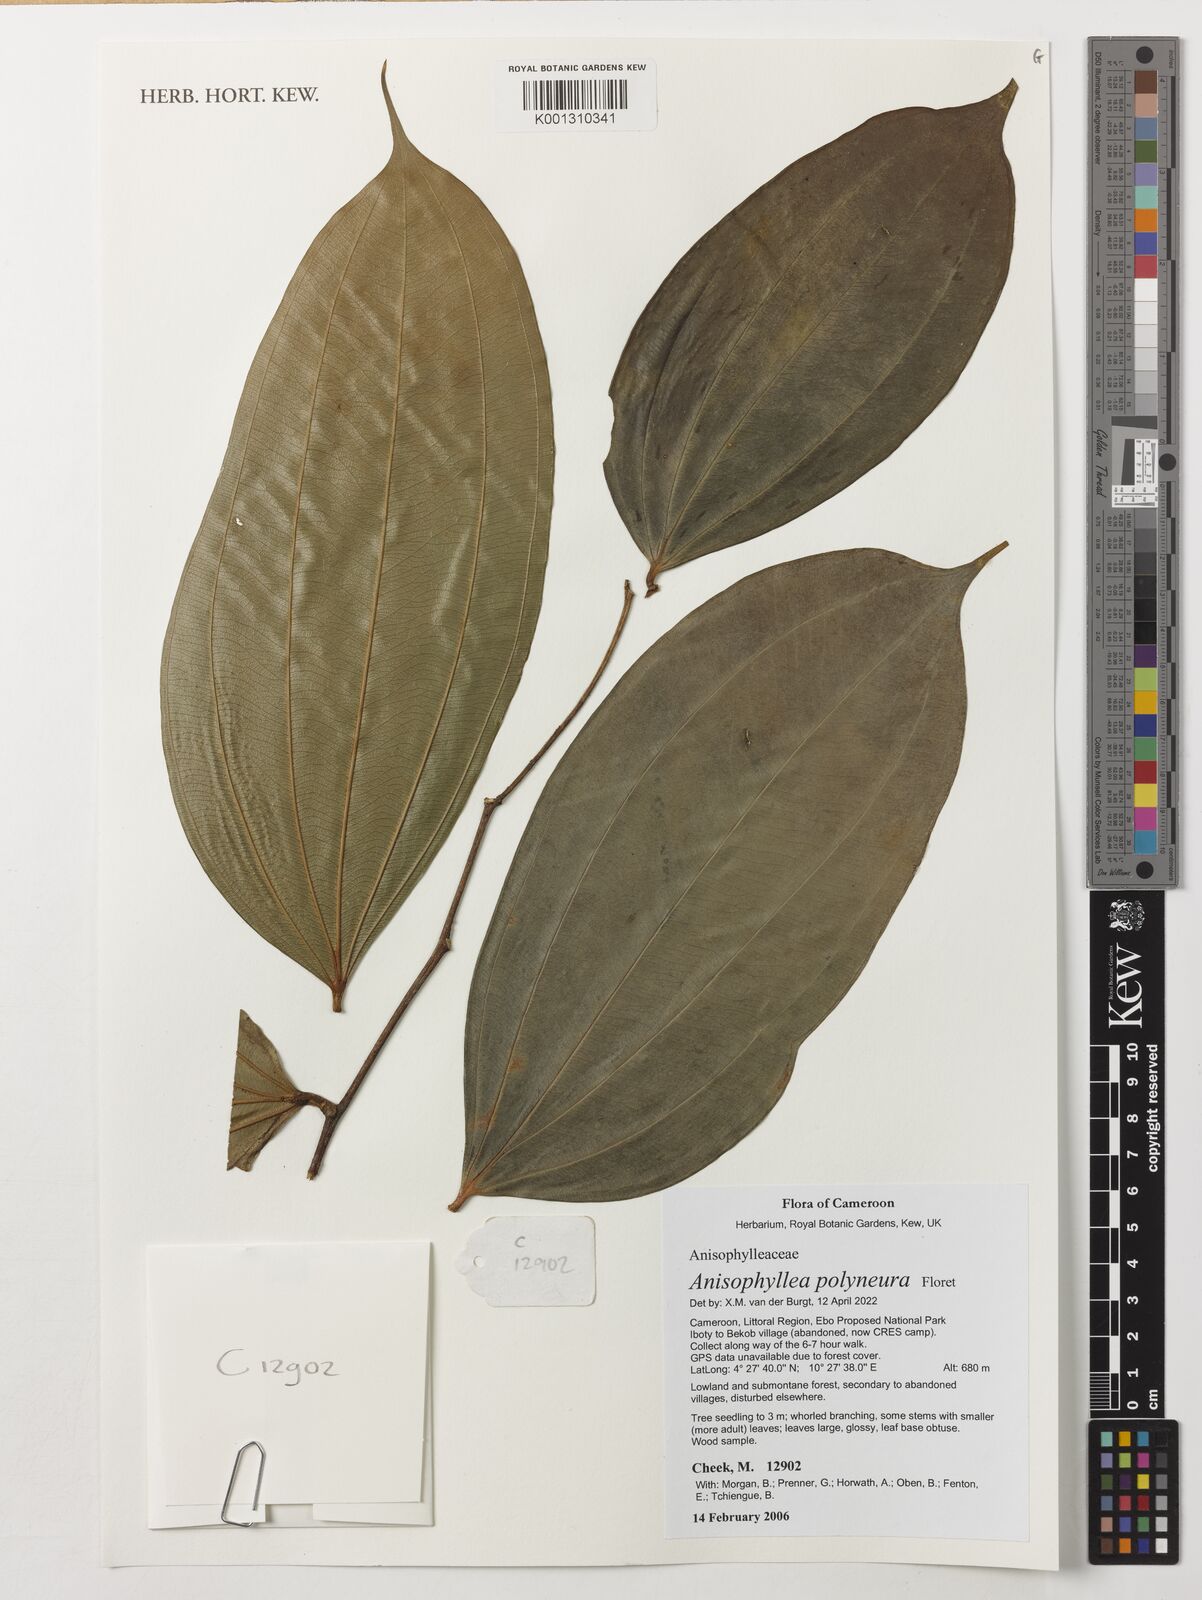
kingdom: Plantae
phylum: Tracheophyta
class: Magnoliopsida
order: Cucurbitales
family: Anisophylleaceae
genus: Anisophyllea
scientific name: Anisophyllea polyneura
